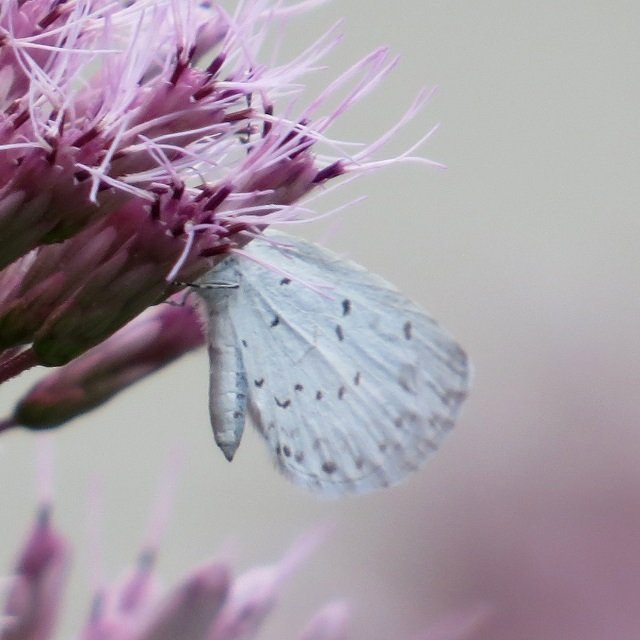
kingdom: Animalia
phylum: Arthropoda
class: Insecta
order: Lepidoptera
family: Lycaenidae
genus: Celastrina
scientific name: Celastrina
